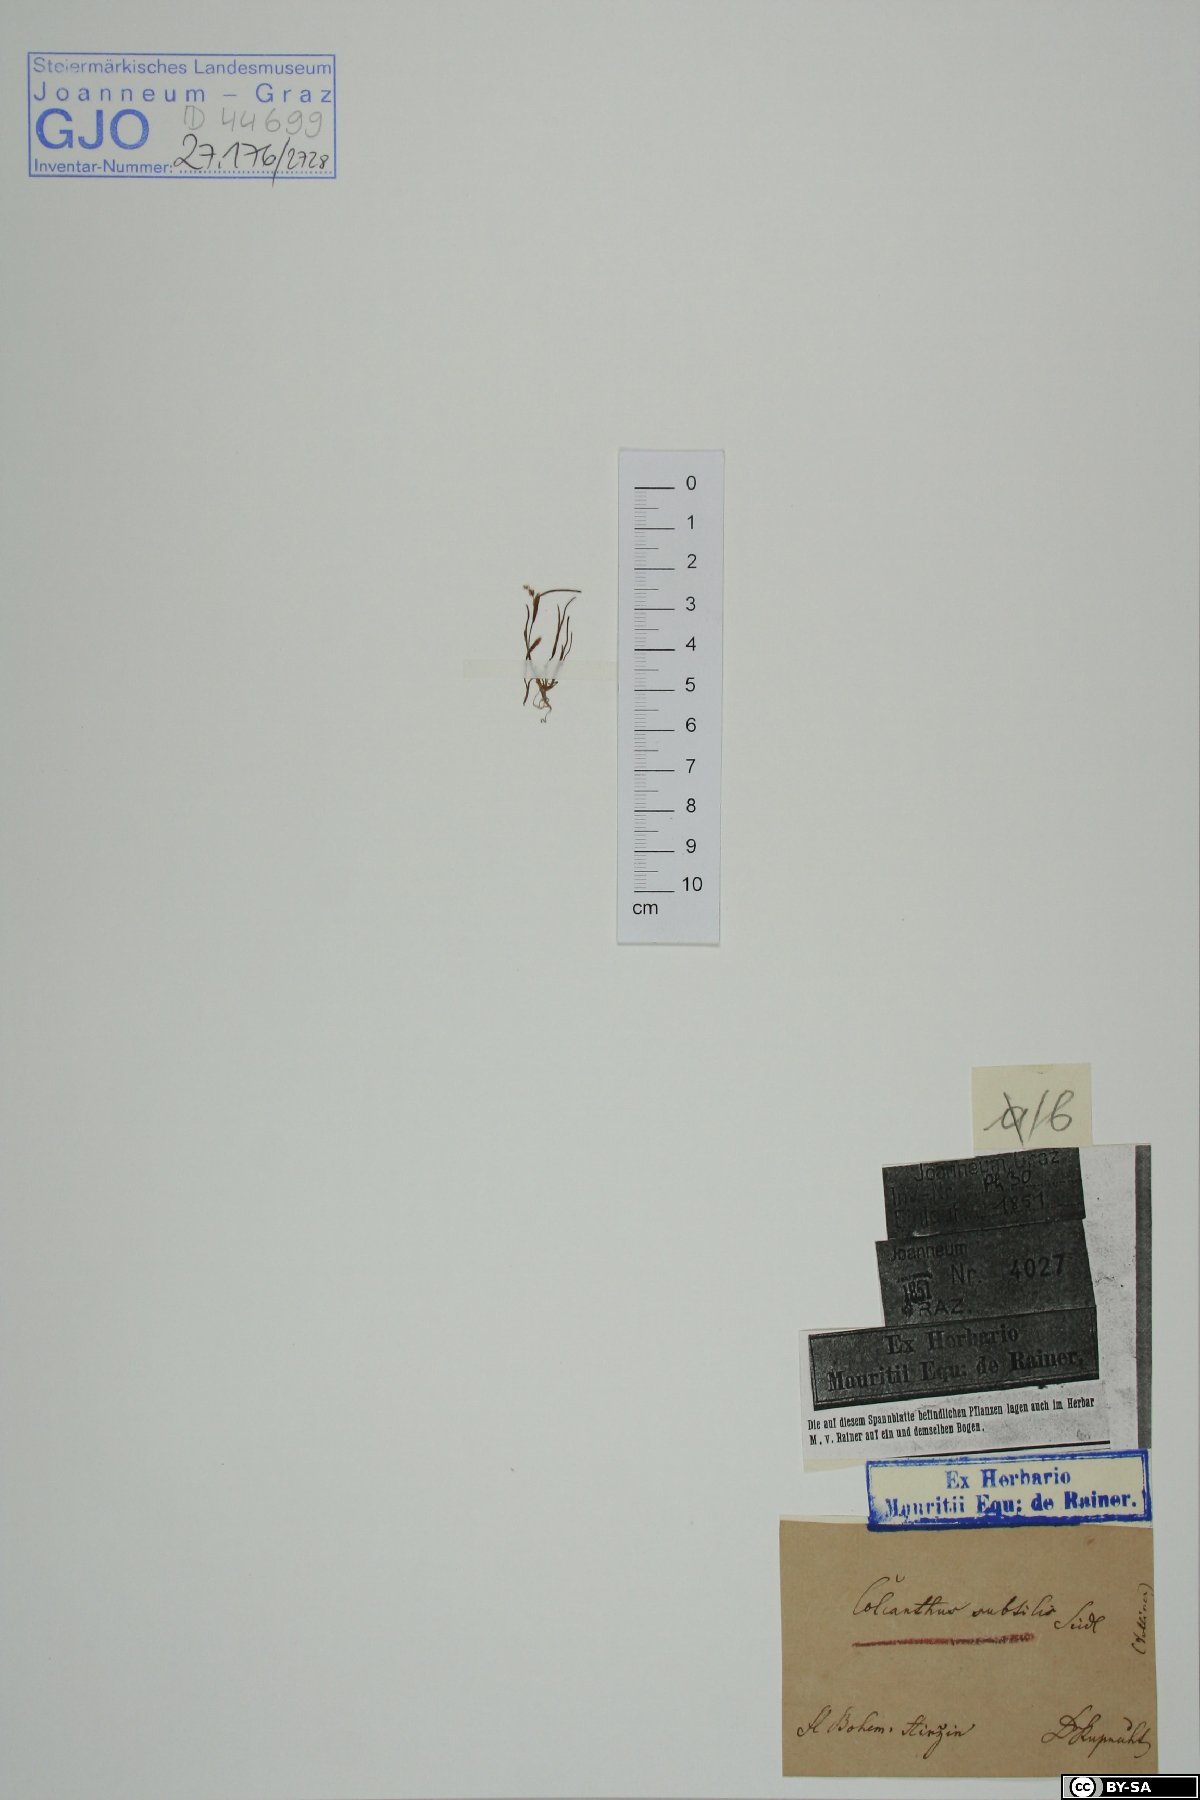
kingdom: Plantae
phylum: Tracheophyta
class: Liliopsida
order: Poales
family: Poaceae
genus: Coleanthus
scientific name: Coleanthus subtilis
